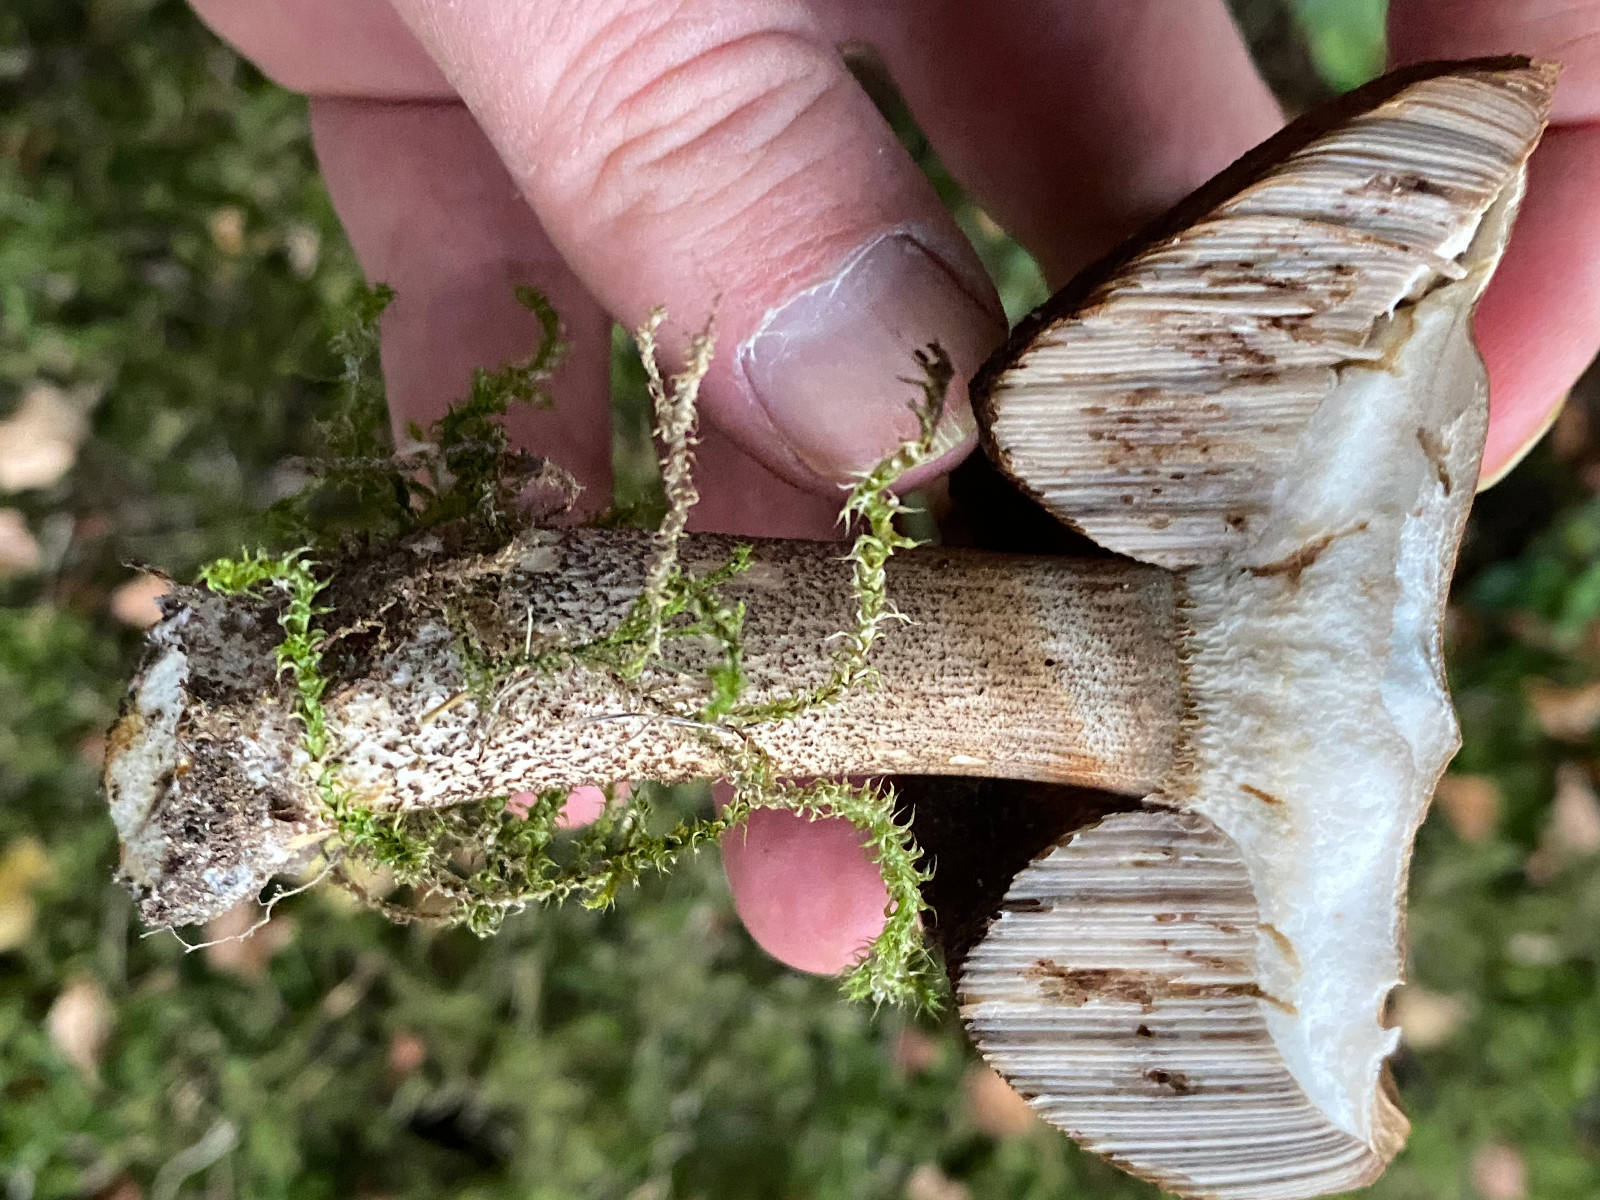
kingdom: Fungi
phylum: Basidiomycota
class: Agaricomycetes
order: Boletales
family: Boletaceae
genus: Leccinum
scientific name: Leccinum scabrum
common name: brun skælrørhat
